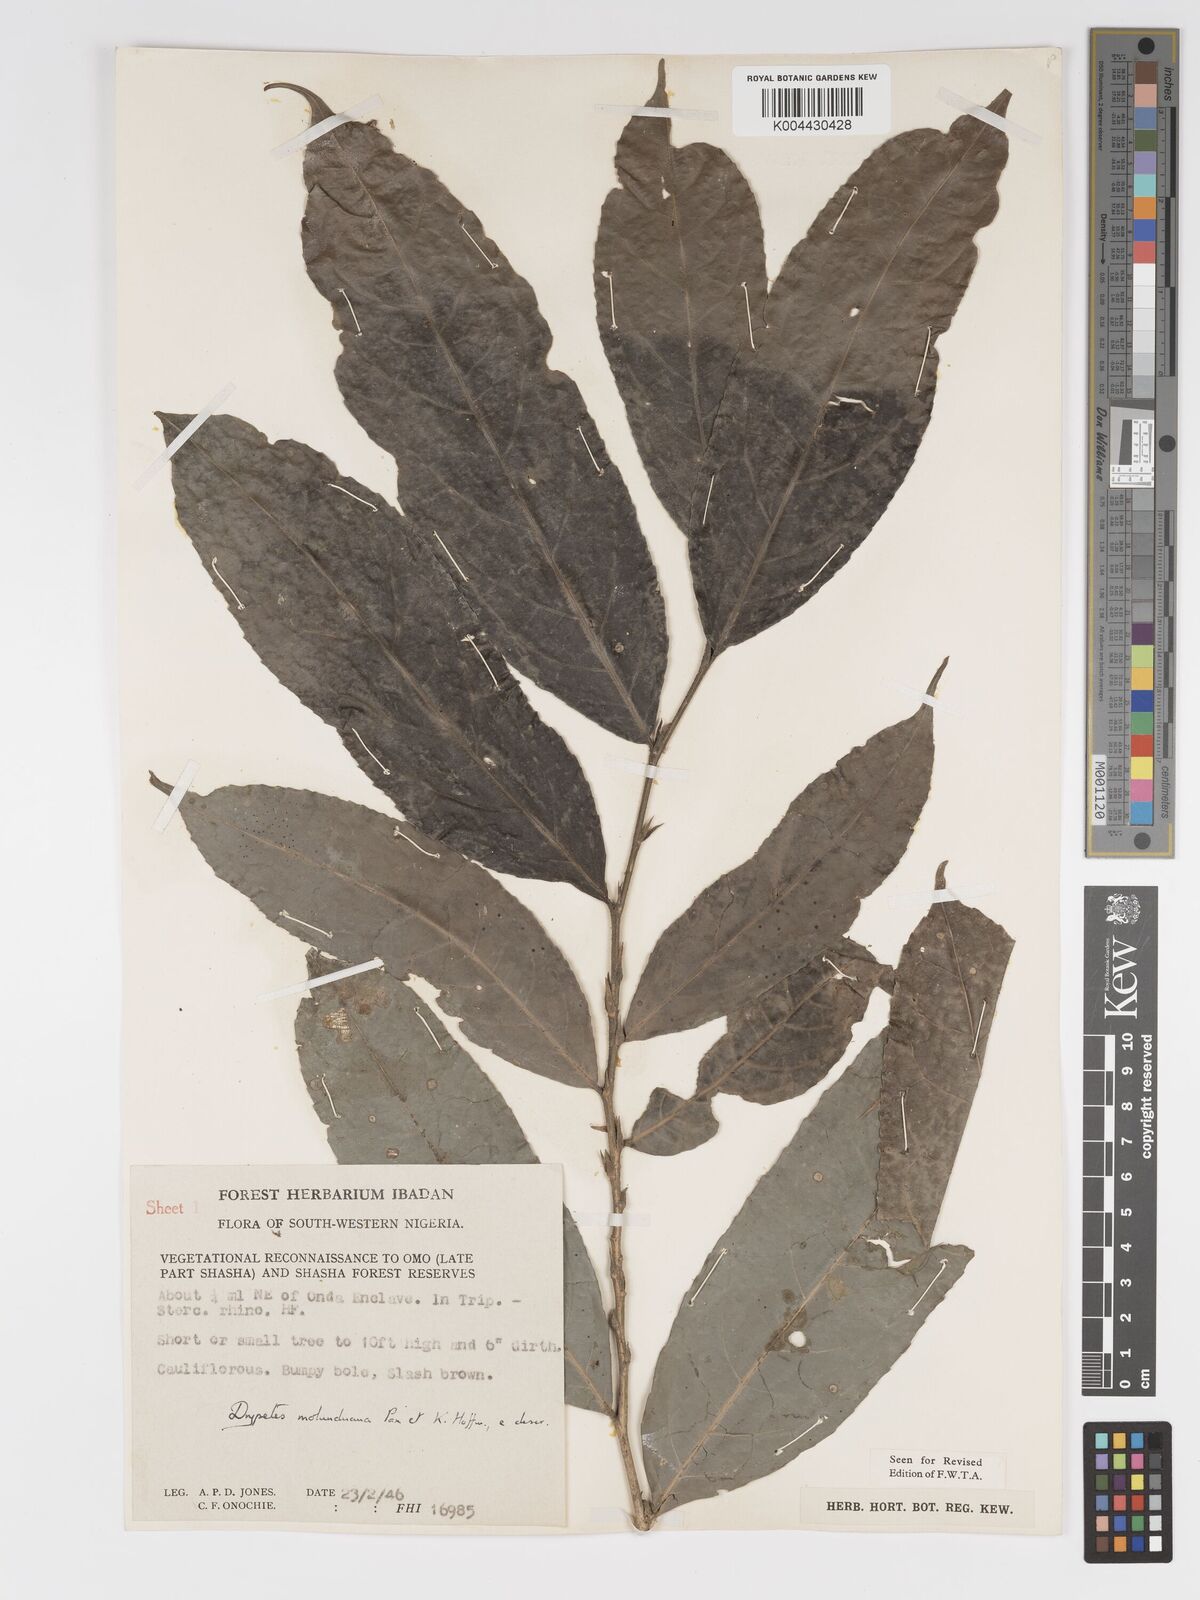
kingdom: Plantae
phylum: Tracheophyta
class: Magnoliopsida
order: Malpighiales
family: Putranjivaceae
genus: Drypetes
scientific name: Drypetes molunduana
